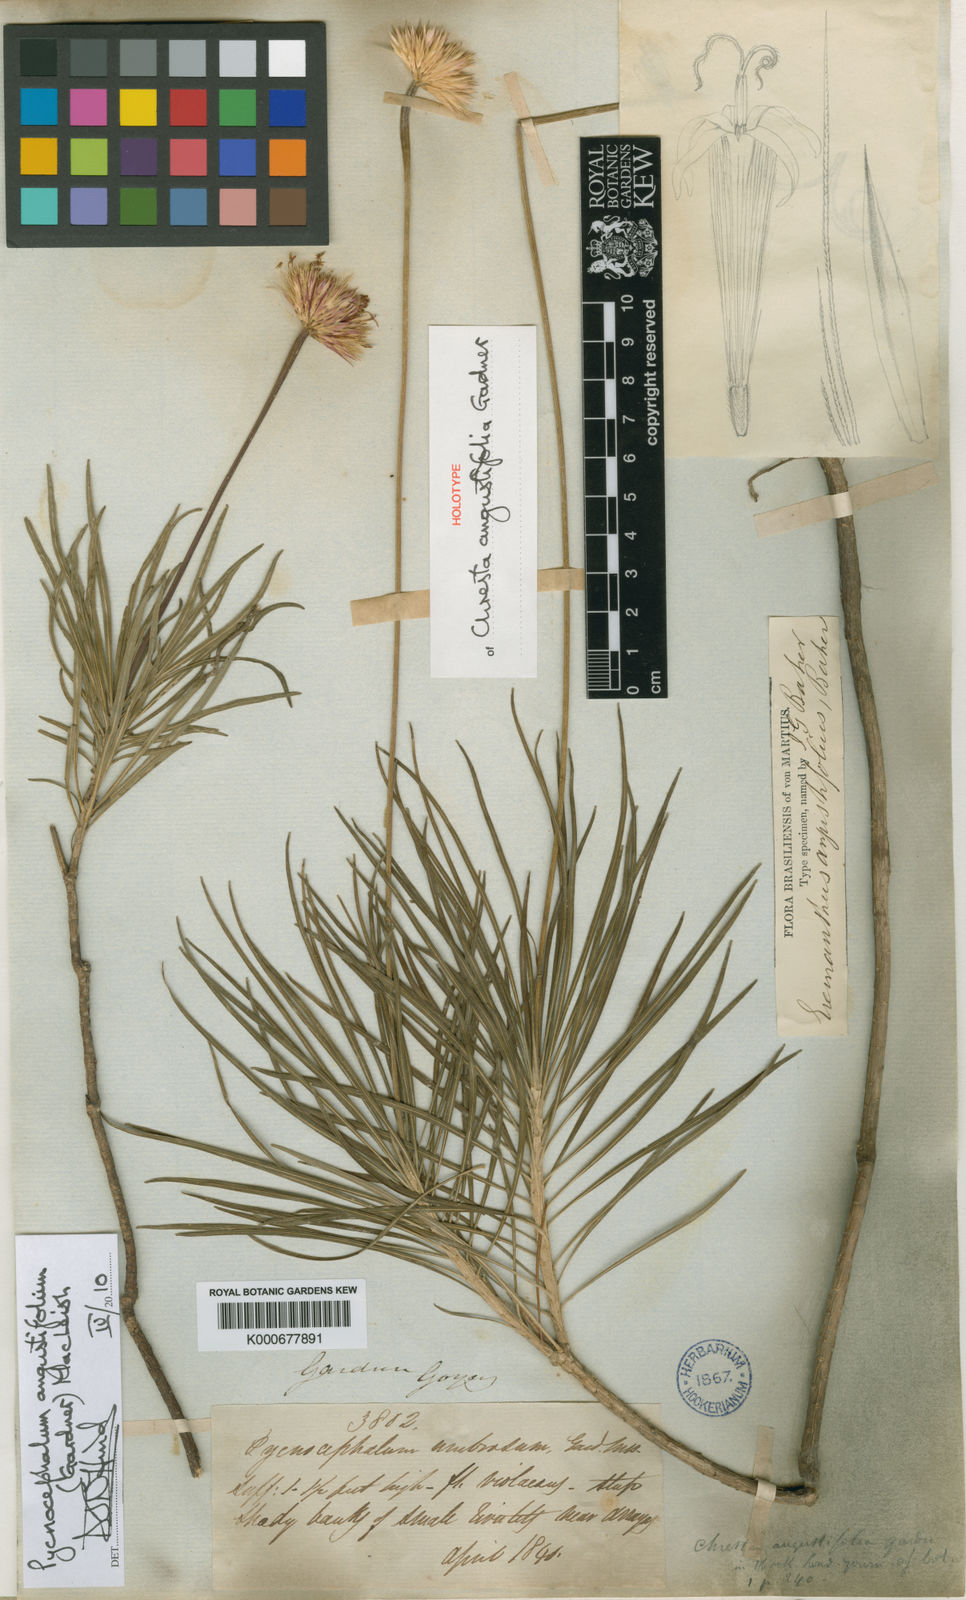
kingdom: Plantae
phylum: Tracheophyta
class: Magnoliopsida
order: Asterales
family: Asteraceae
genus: Chresta
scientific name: Chresta angustifolia
